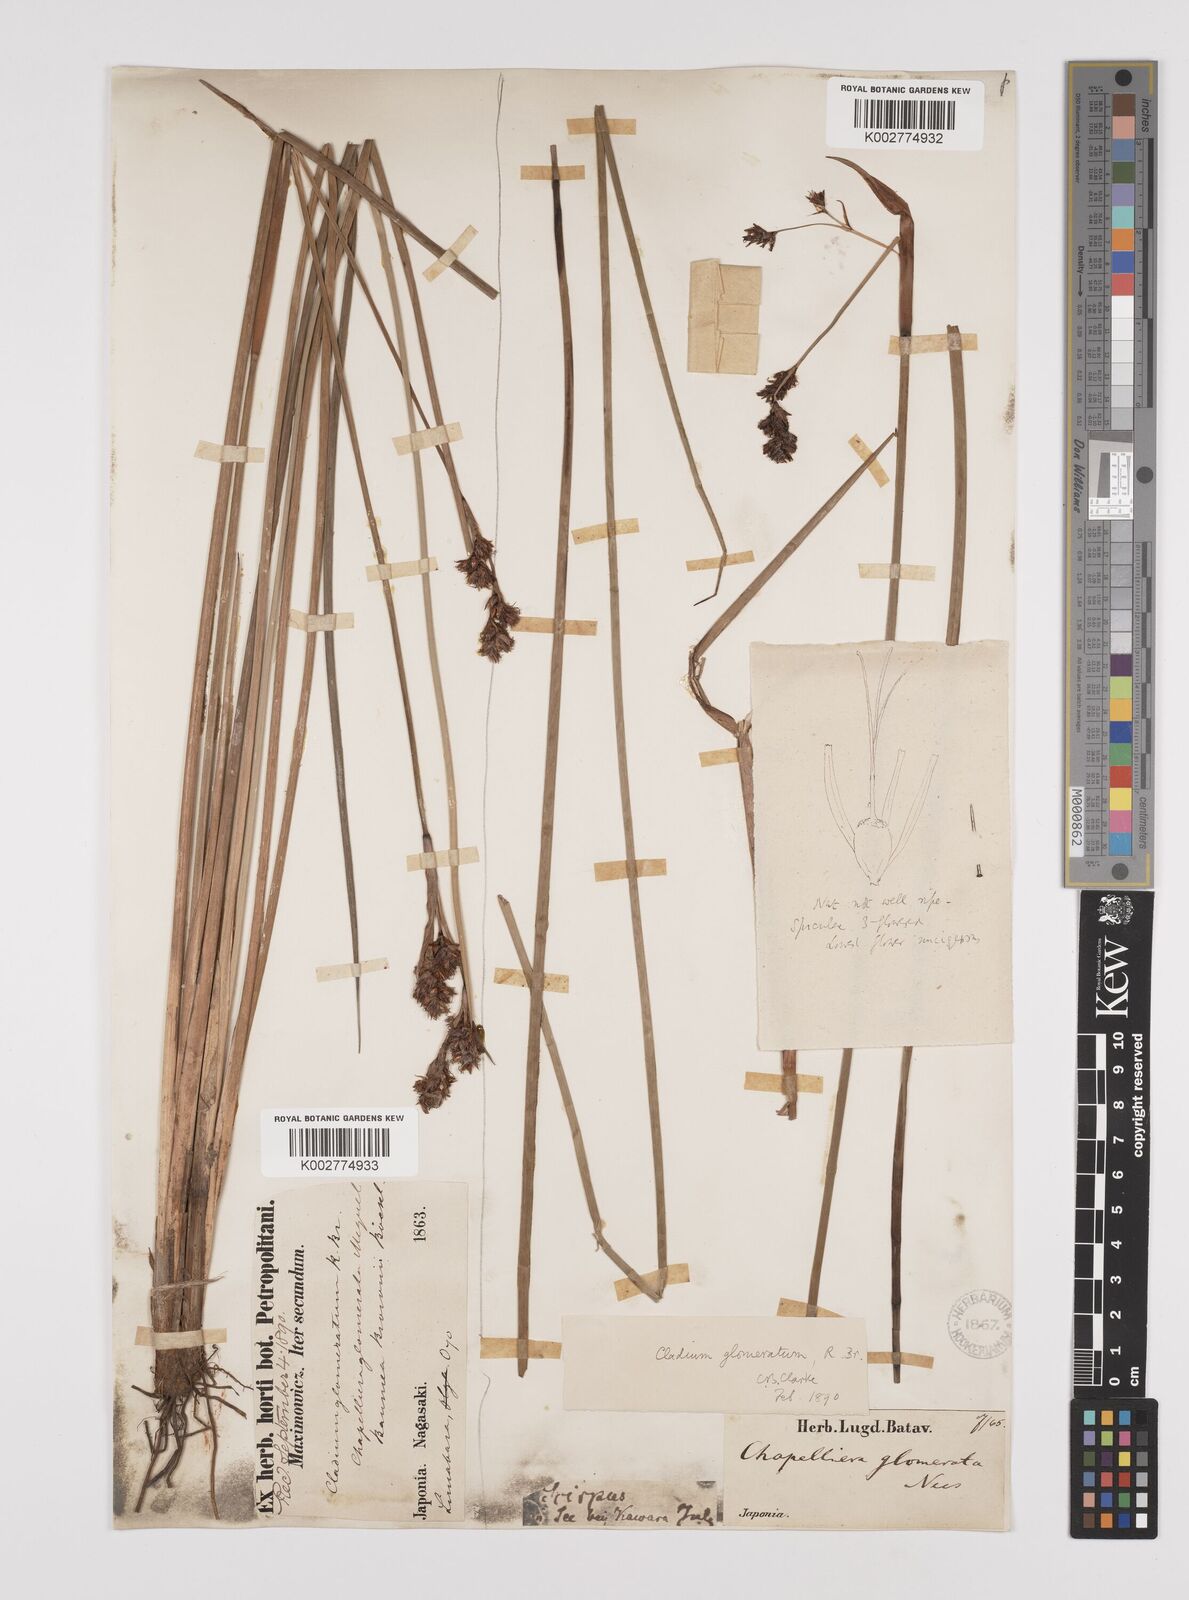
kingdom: Plantae
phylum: Tracheophyta
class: Liliopsida
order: Poales
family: Cyperaceae
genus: Machaerina
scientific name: Machaerina rubiginosa
